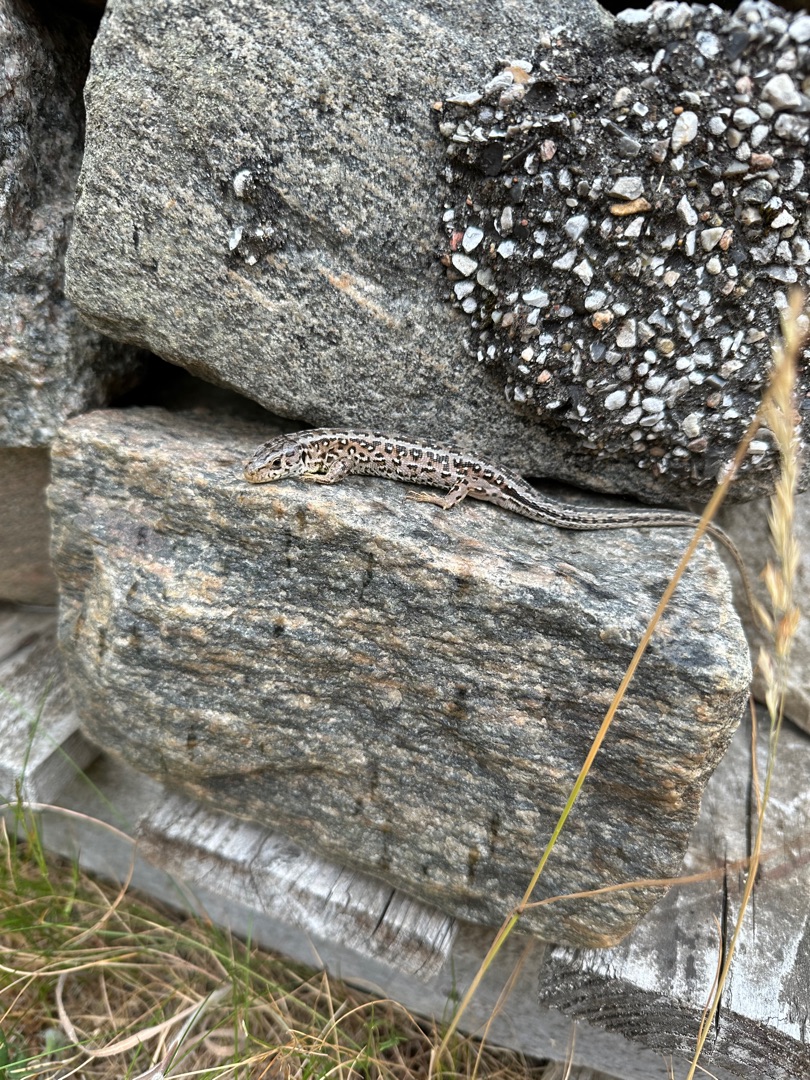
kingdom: Animalia
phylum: Chordata
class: Squamata
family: Lacertidae
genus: Lacerta
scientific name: Lacerta agilis
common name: Markfirben
